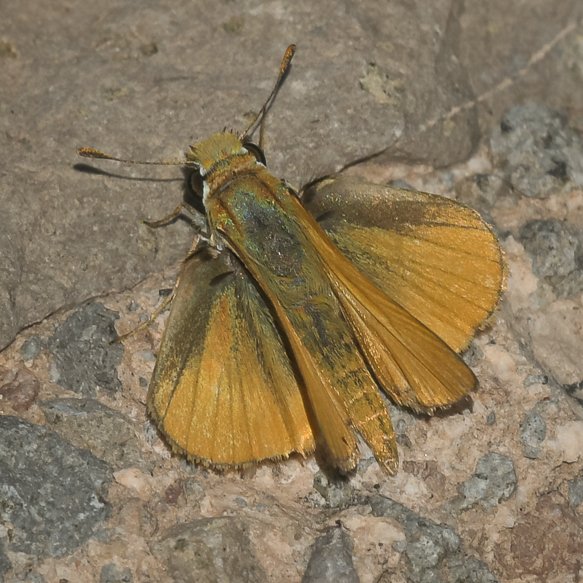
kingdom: Animalia
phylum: Arthropoda
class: Insecta
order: Lepidoptera
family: Hesperiidae
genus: Copaeodes
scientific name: Copaeodes aurantiaca
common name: Orange Skipperling
